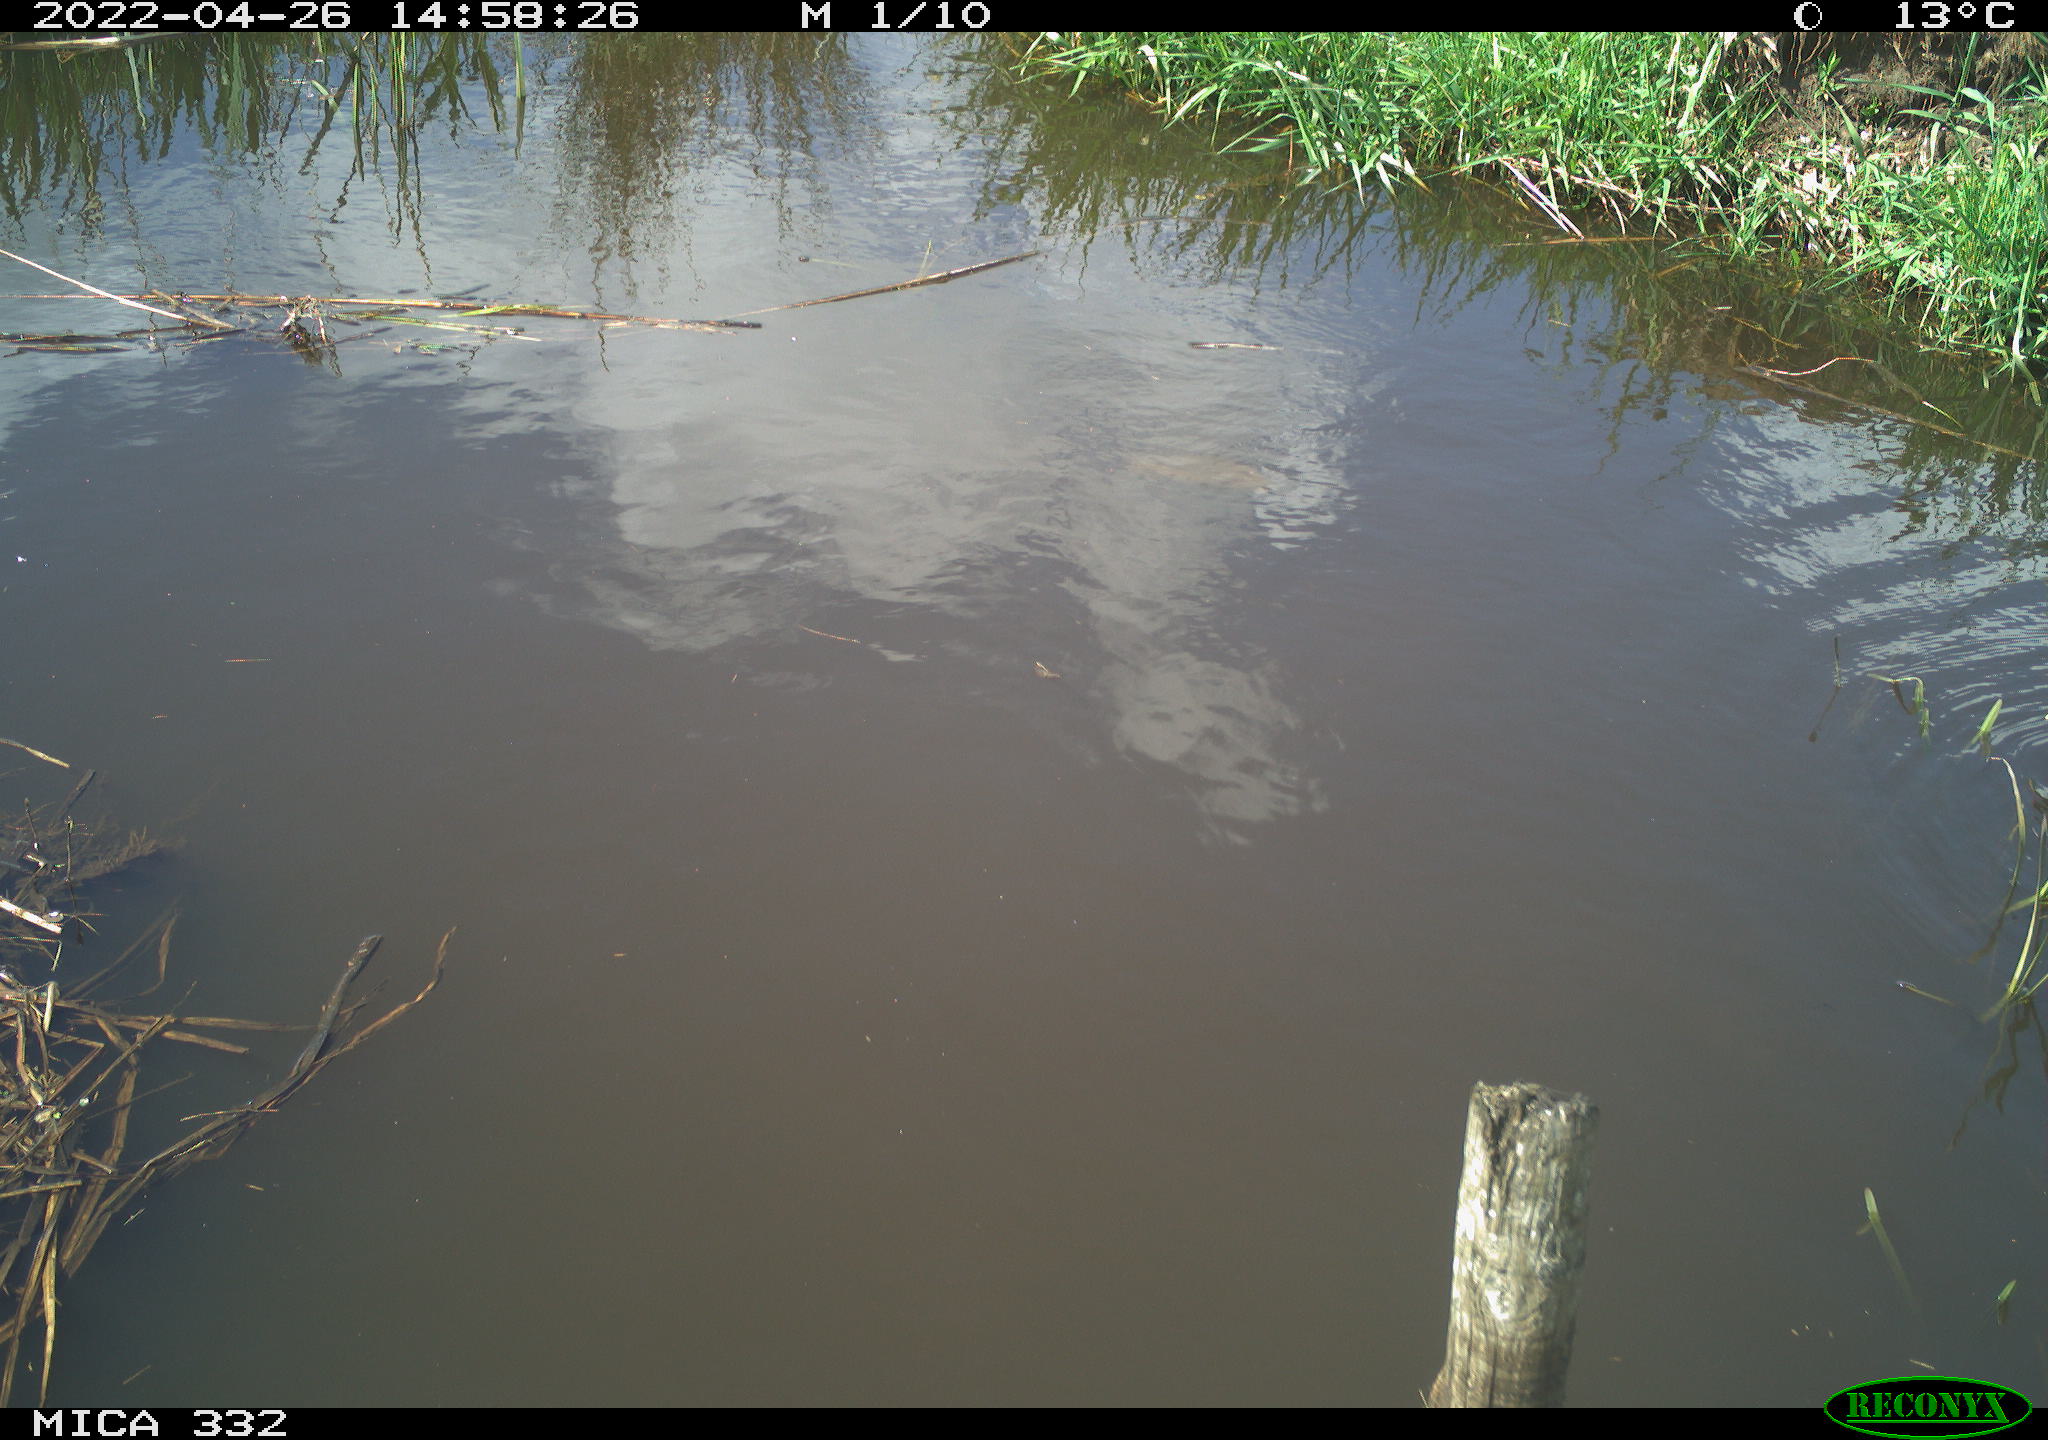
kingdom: Animalia
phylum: Chordata
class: Aves
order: Gruiformes
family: Rallidae
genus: Gallinula
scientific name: Gallinula chloropus
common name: Common moorhen
